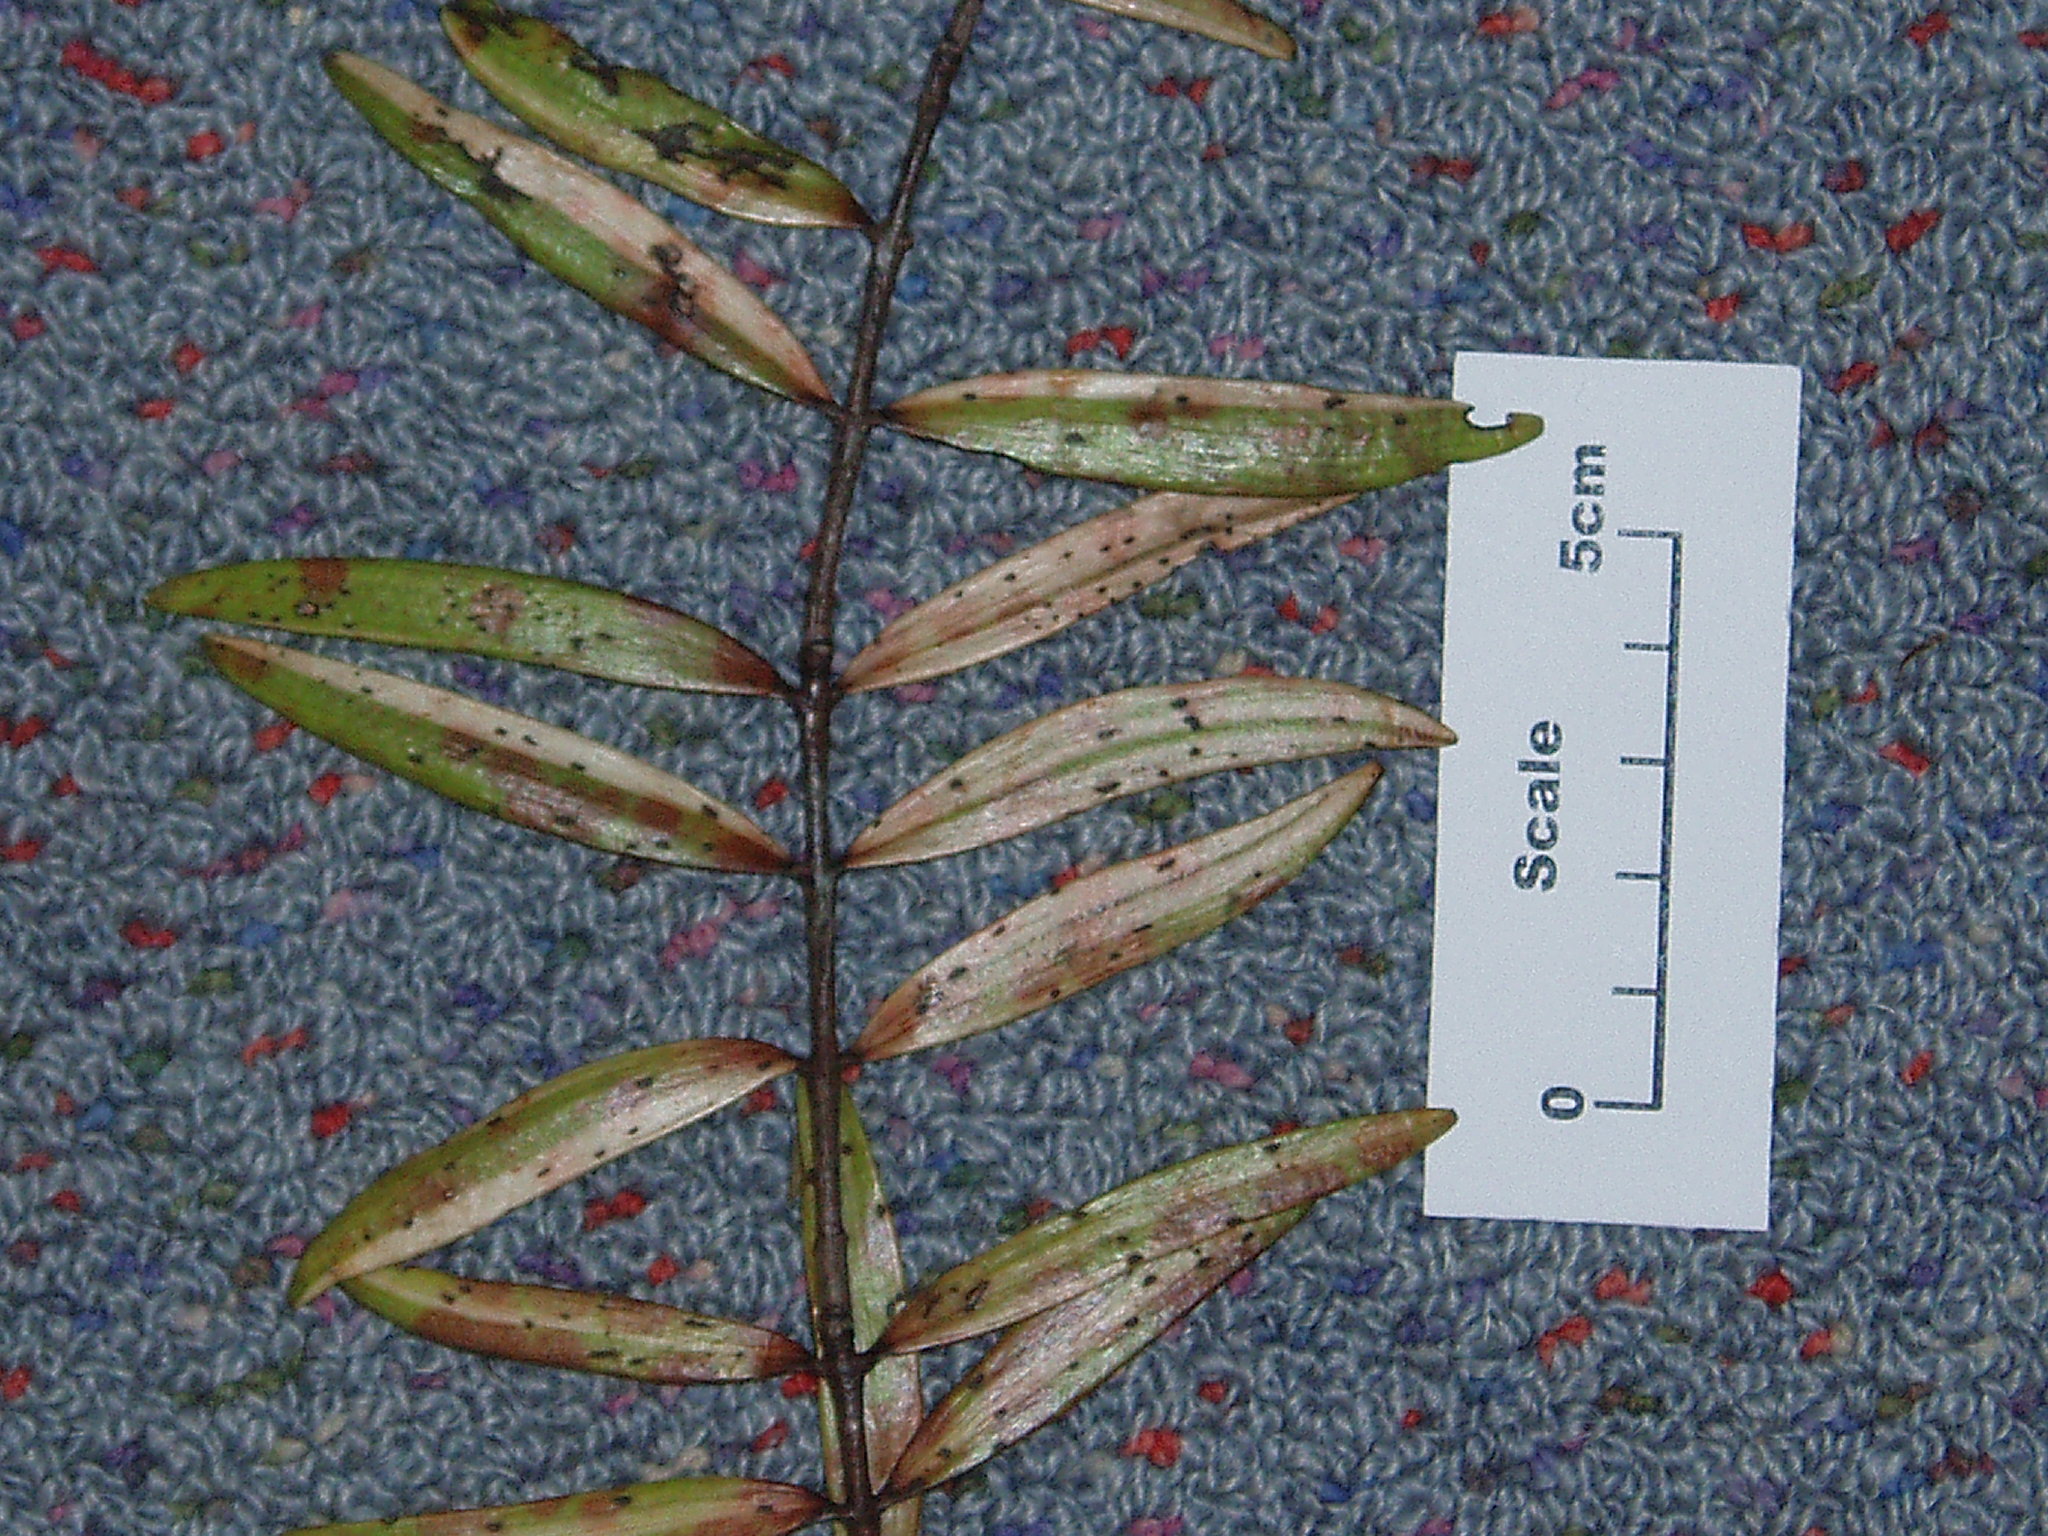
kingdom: Plantae
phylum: Tracheophyta
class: Pinopsida
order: Pinales
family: Araucariaceae
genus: Agathis
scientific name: Agathis australis
